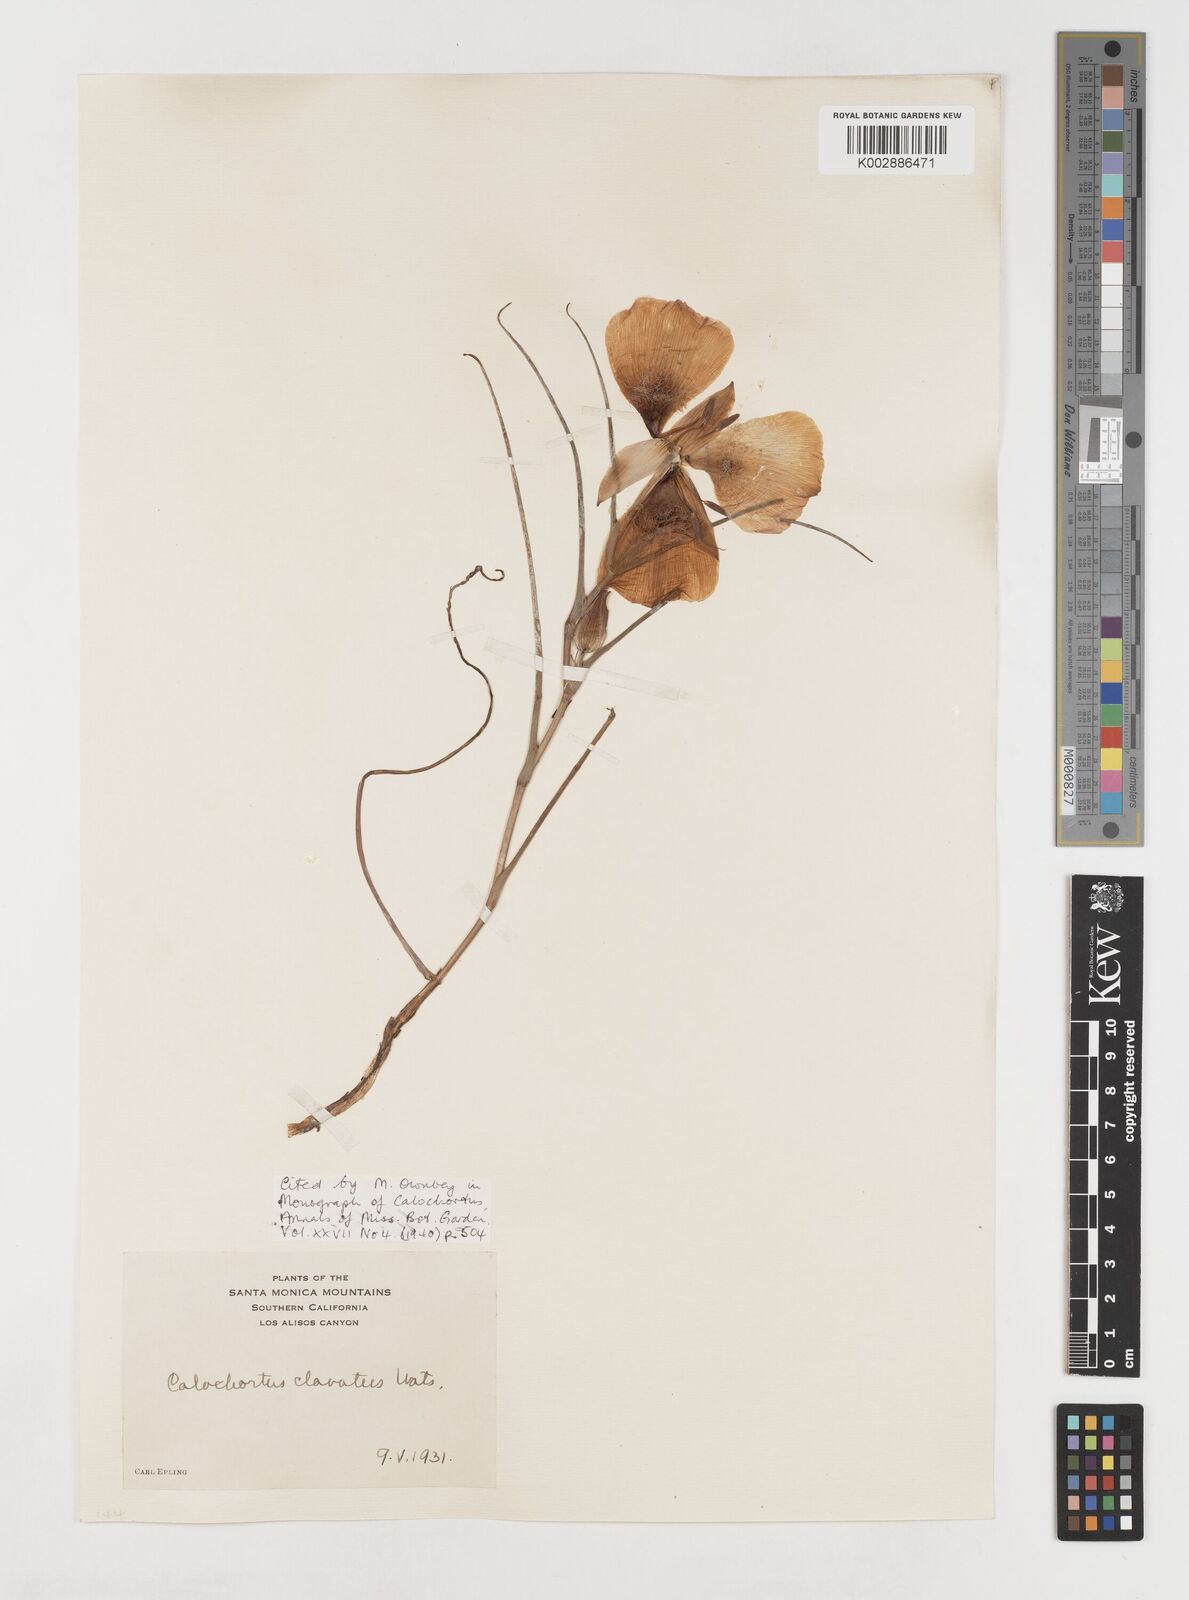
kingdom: Plantae
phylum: Tracheophyta
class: Liliopsida
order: Liliales
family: Liliaceae
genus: Calochortus
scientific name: Calochortus clavatus
